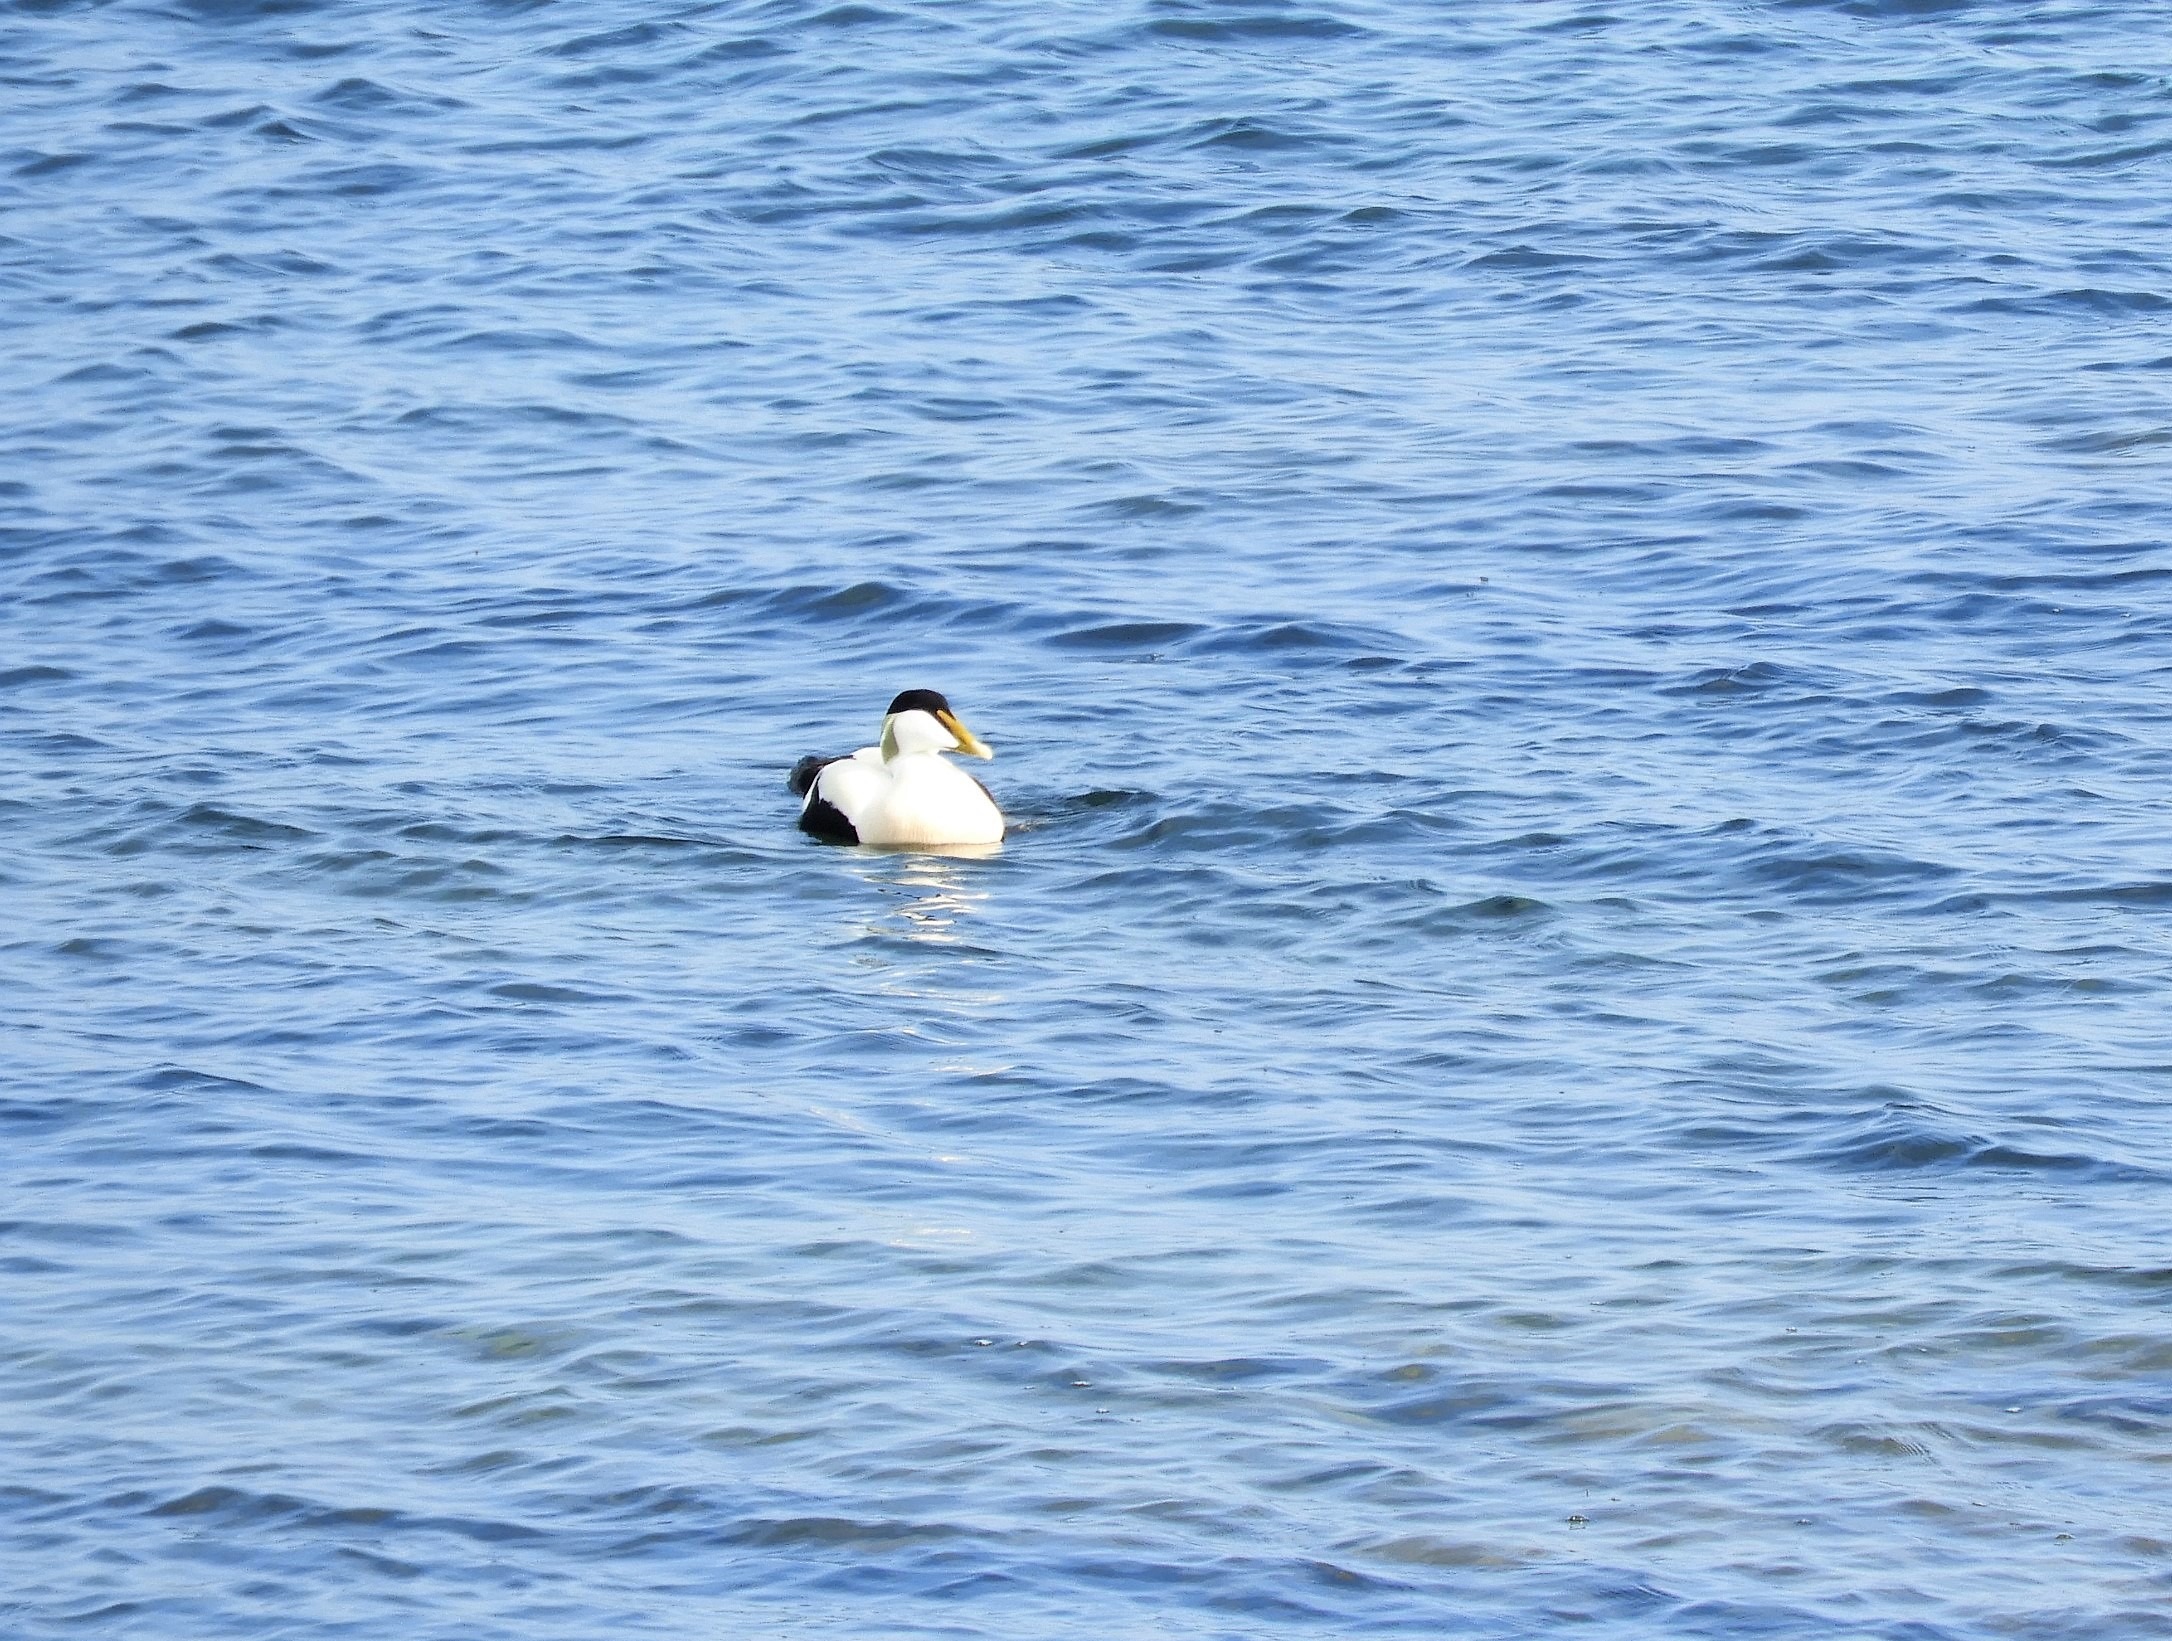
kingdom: Animalia
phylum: Chordata
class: Aves
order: Anseriformes
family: Anatidae
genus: Somateria
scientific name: Somateria mollissima
